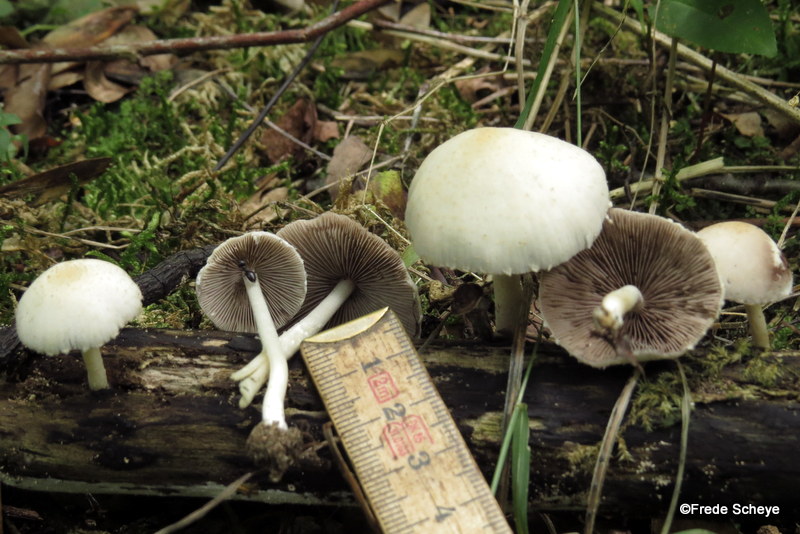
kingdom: Fungi
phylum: Basidiomycota
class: Agaricomycetes
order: Agaricales
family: Psathyrellaceae
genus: Candolleomyces
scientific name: Candolleomyces candolleanus
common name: Candolles mørkhat
